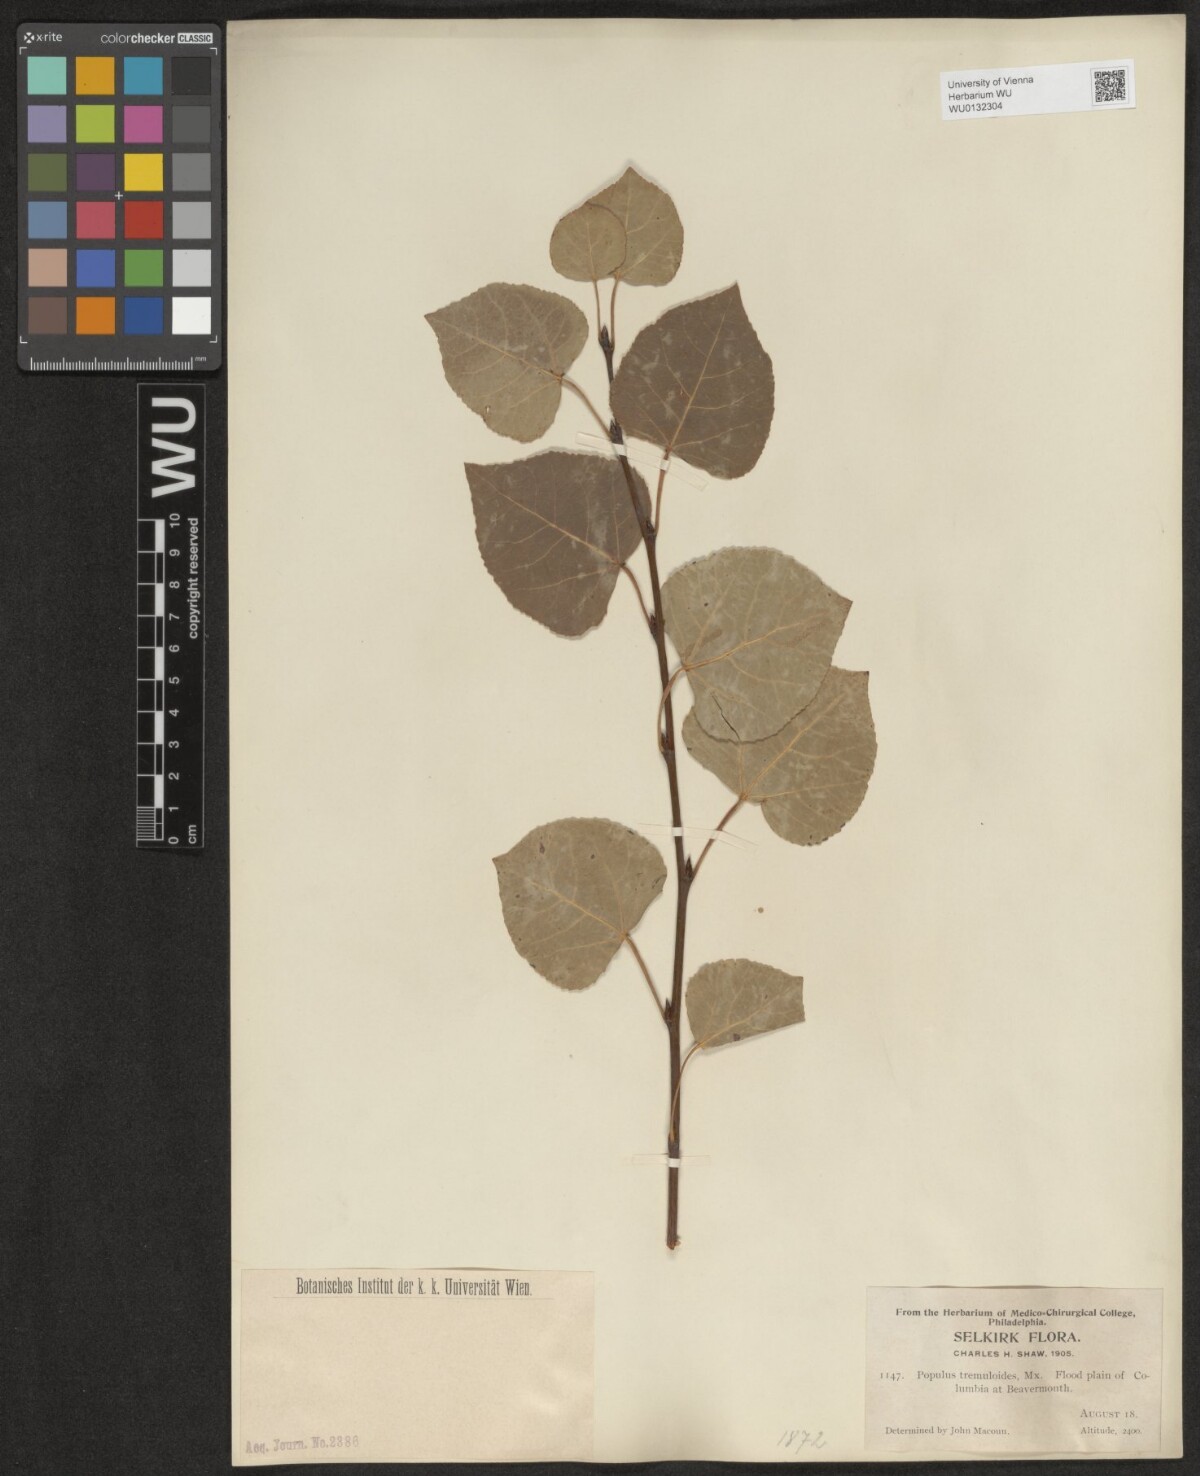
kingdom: Plantae
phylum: Tracheophyta
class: Magnoliopsida
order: Malpighiales
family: Salicaceae
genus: Populus
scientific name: Populus tremuloides
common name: Quaking aspen
